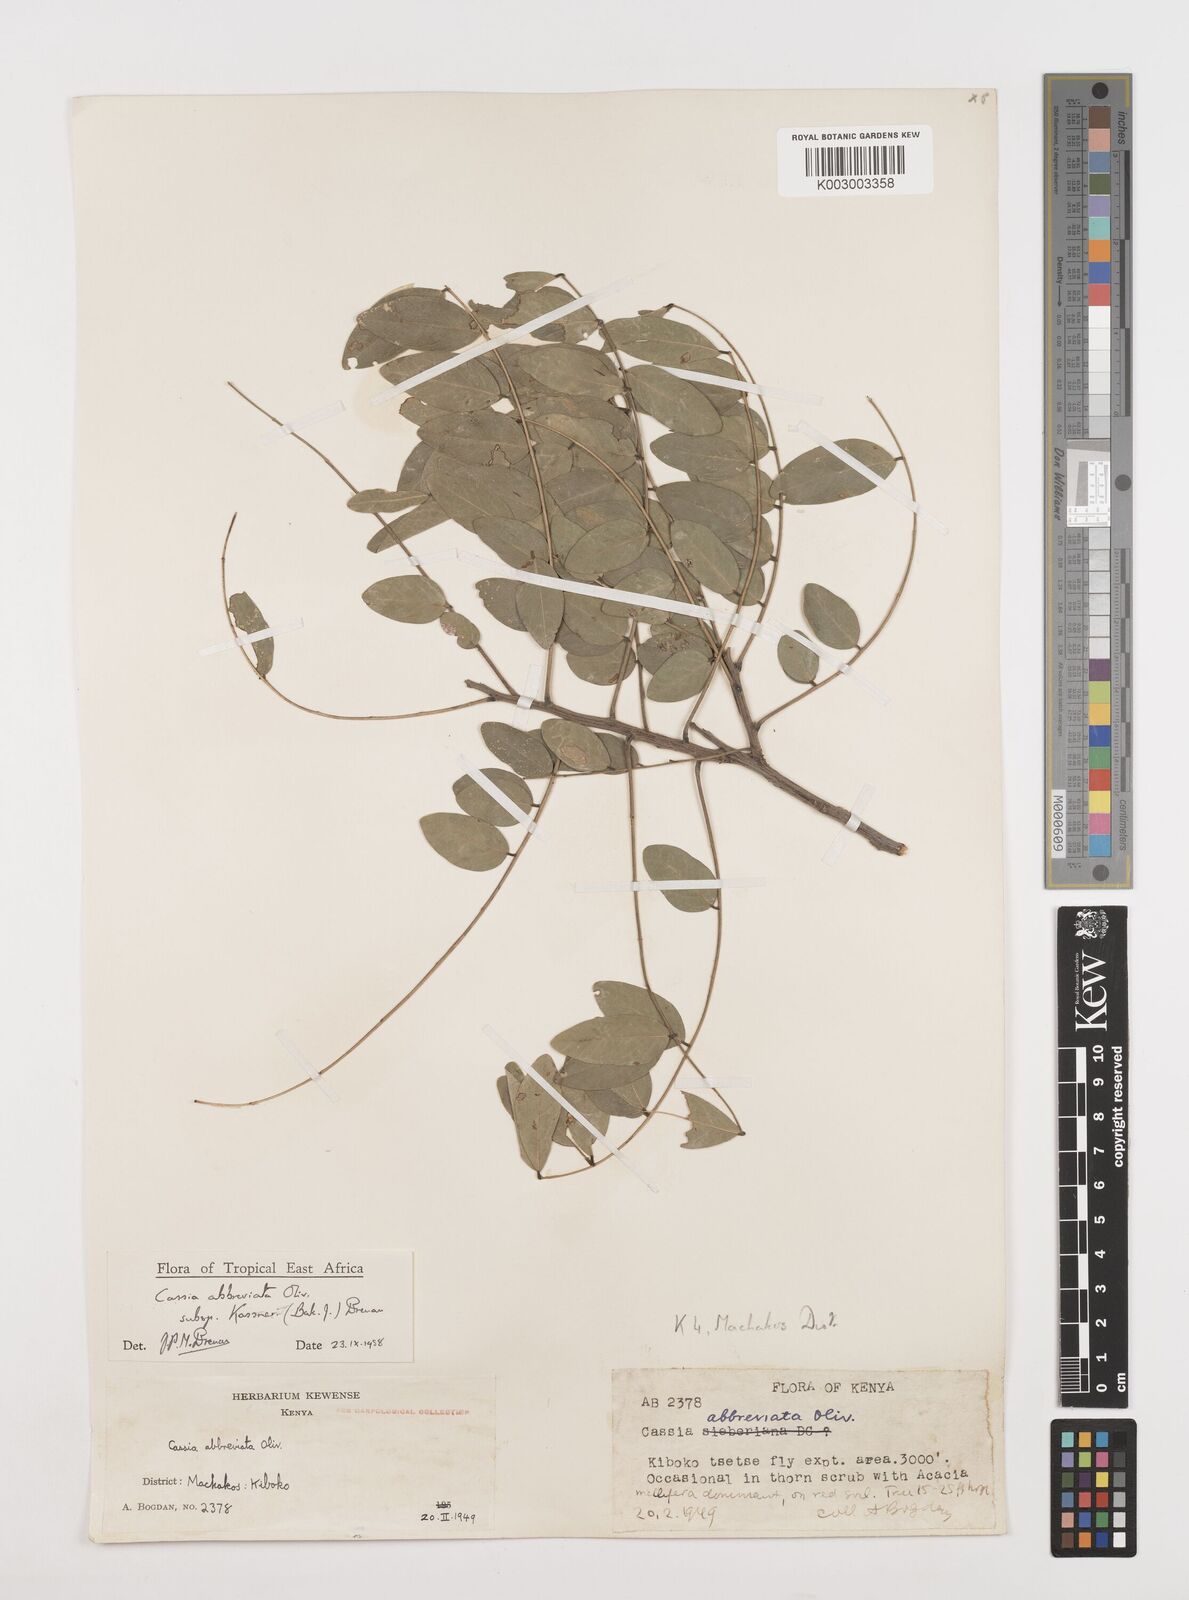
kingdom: Plantae
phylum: Tracheophyta
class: Magnoliopsida
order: Fabales
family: Fabaceae
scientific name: Fabaceae
